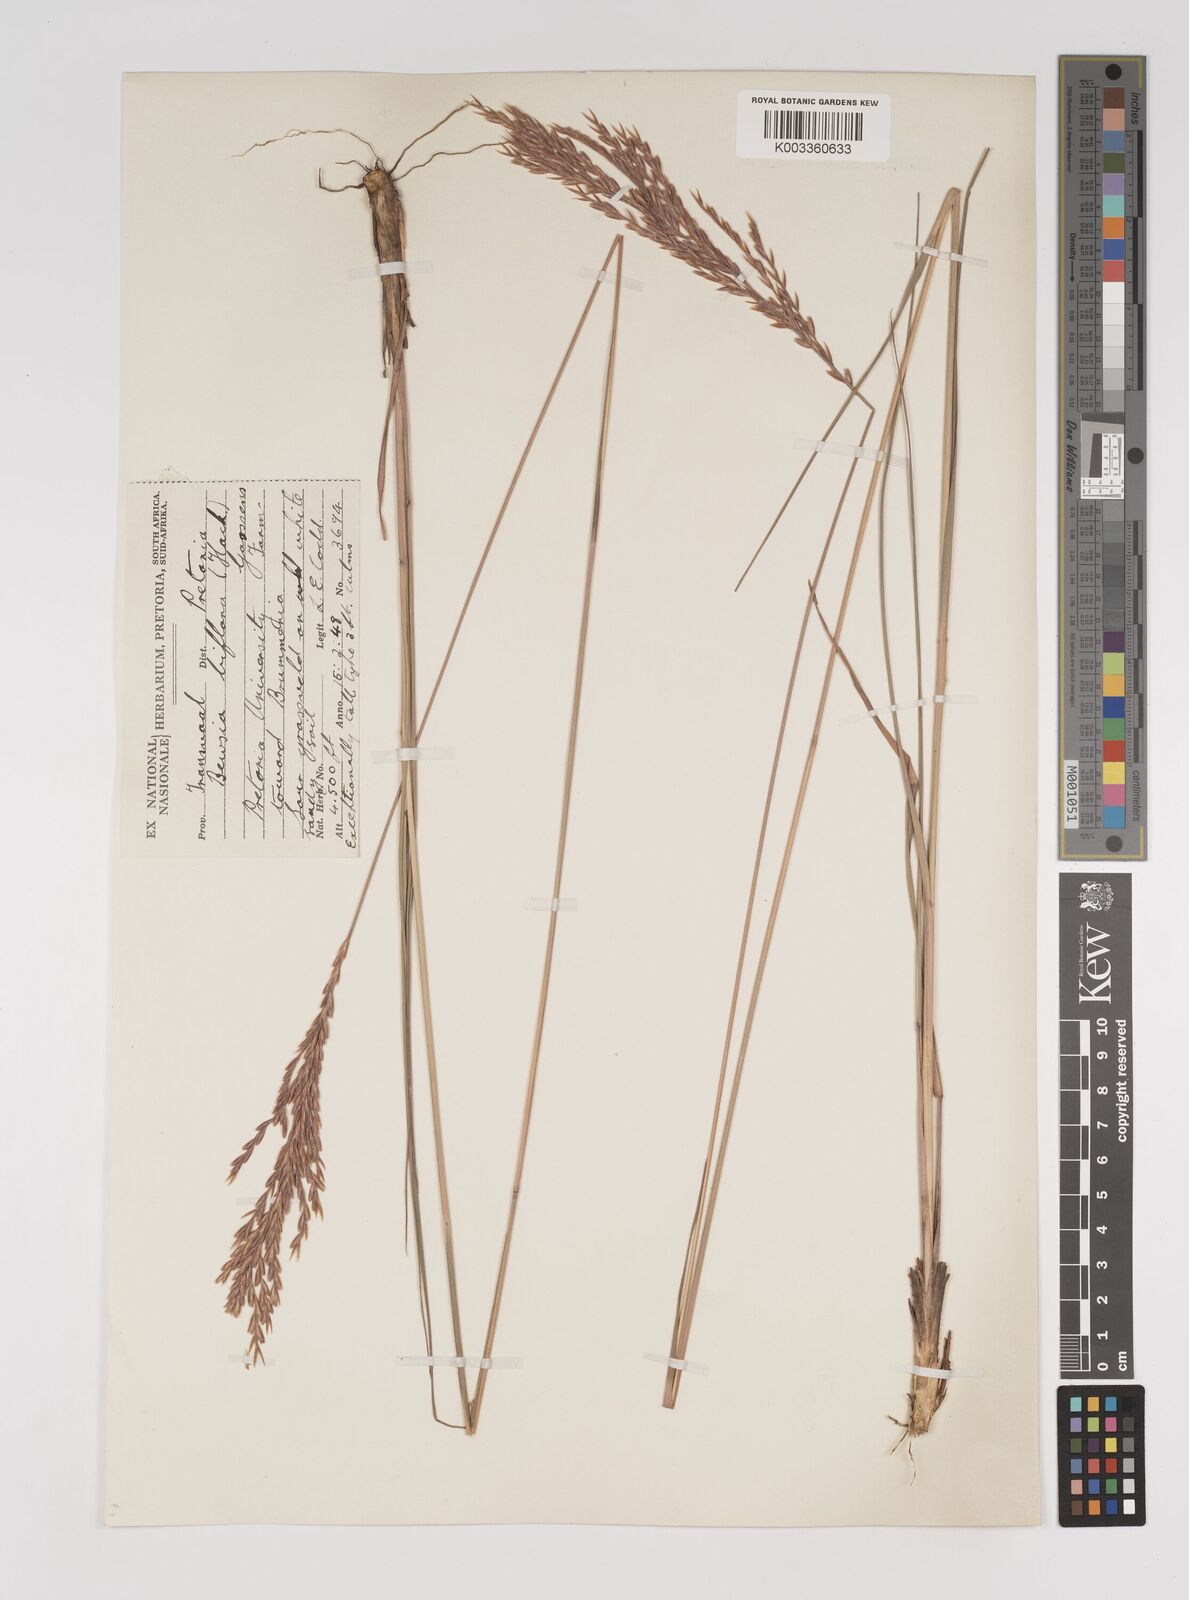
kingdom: Plantae
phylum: Tracheophyta
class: Liliopsida
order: Poales
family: Poaceae
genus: Bewsia
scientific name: Bewsia biflora
